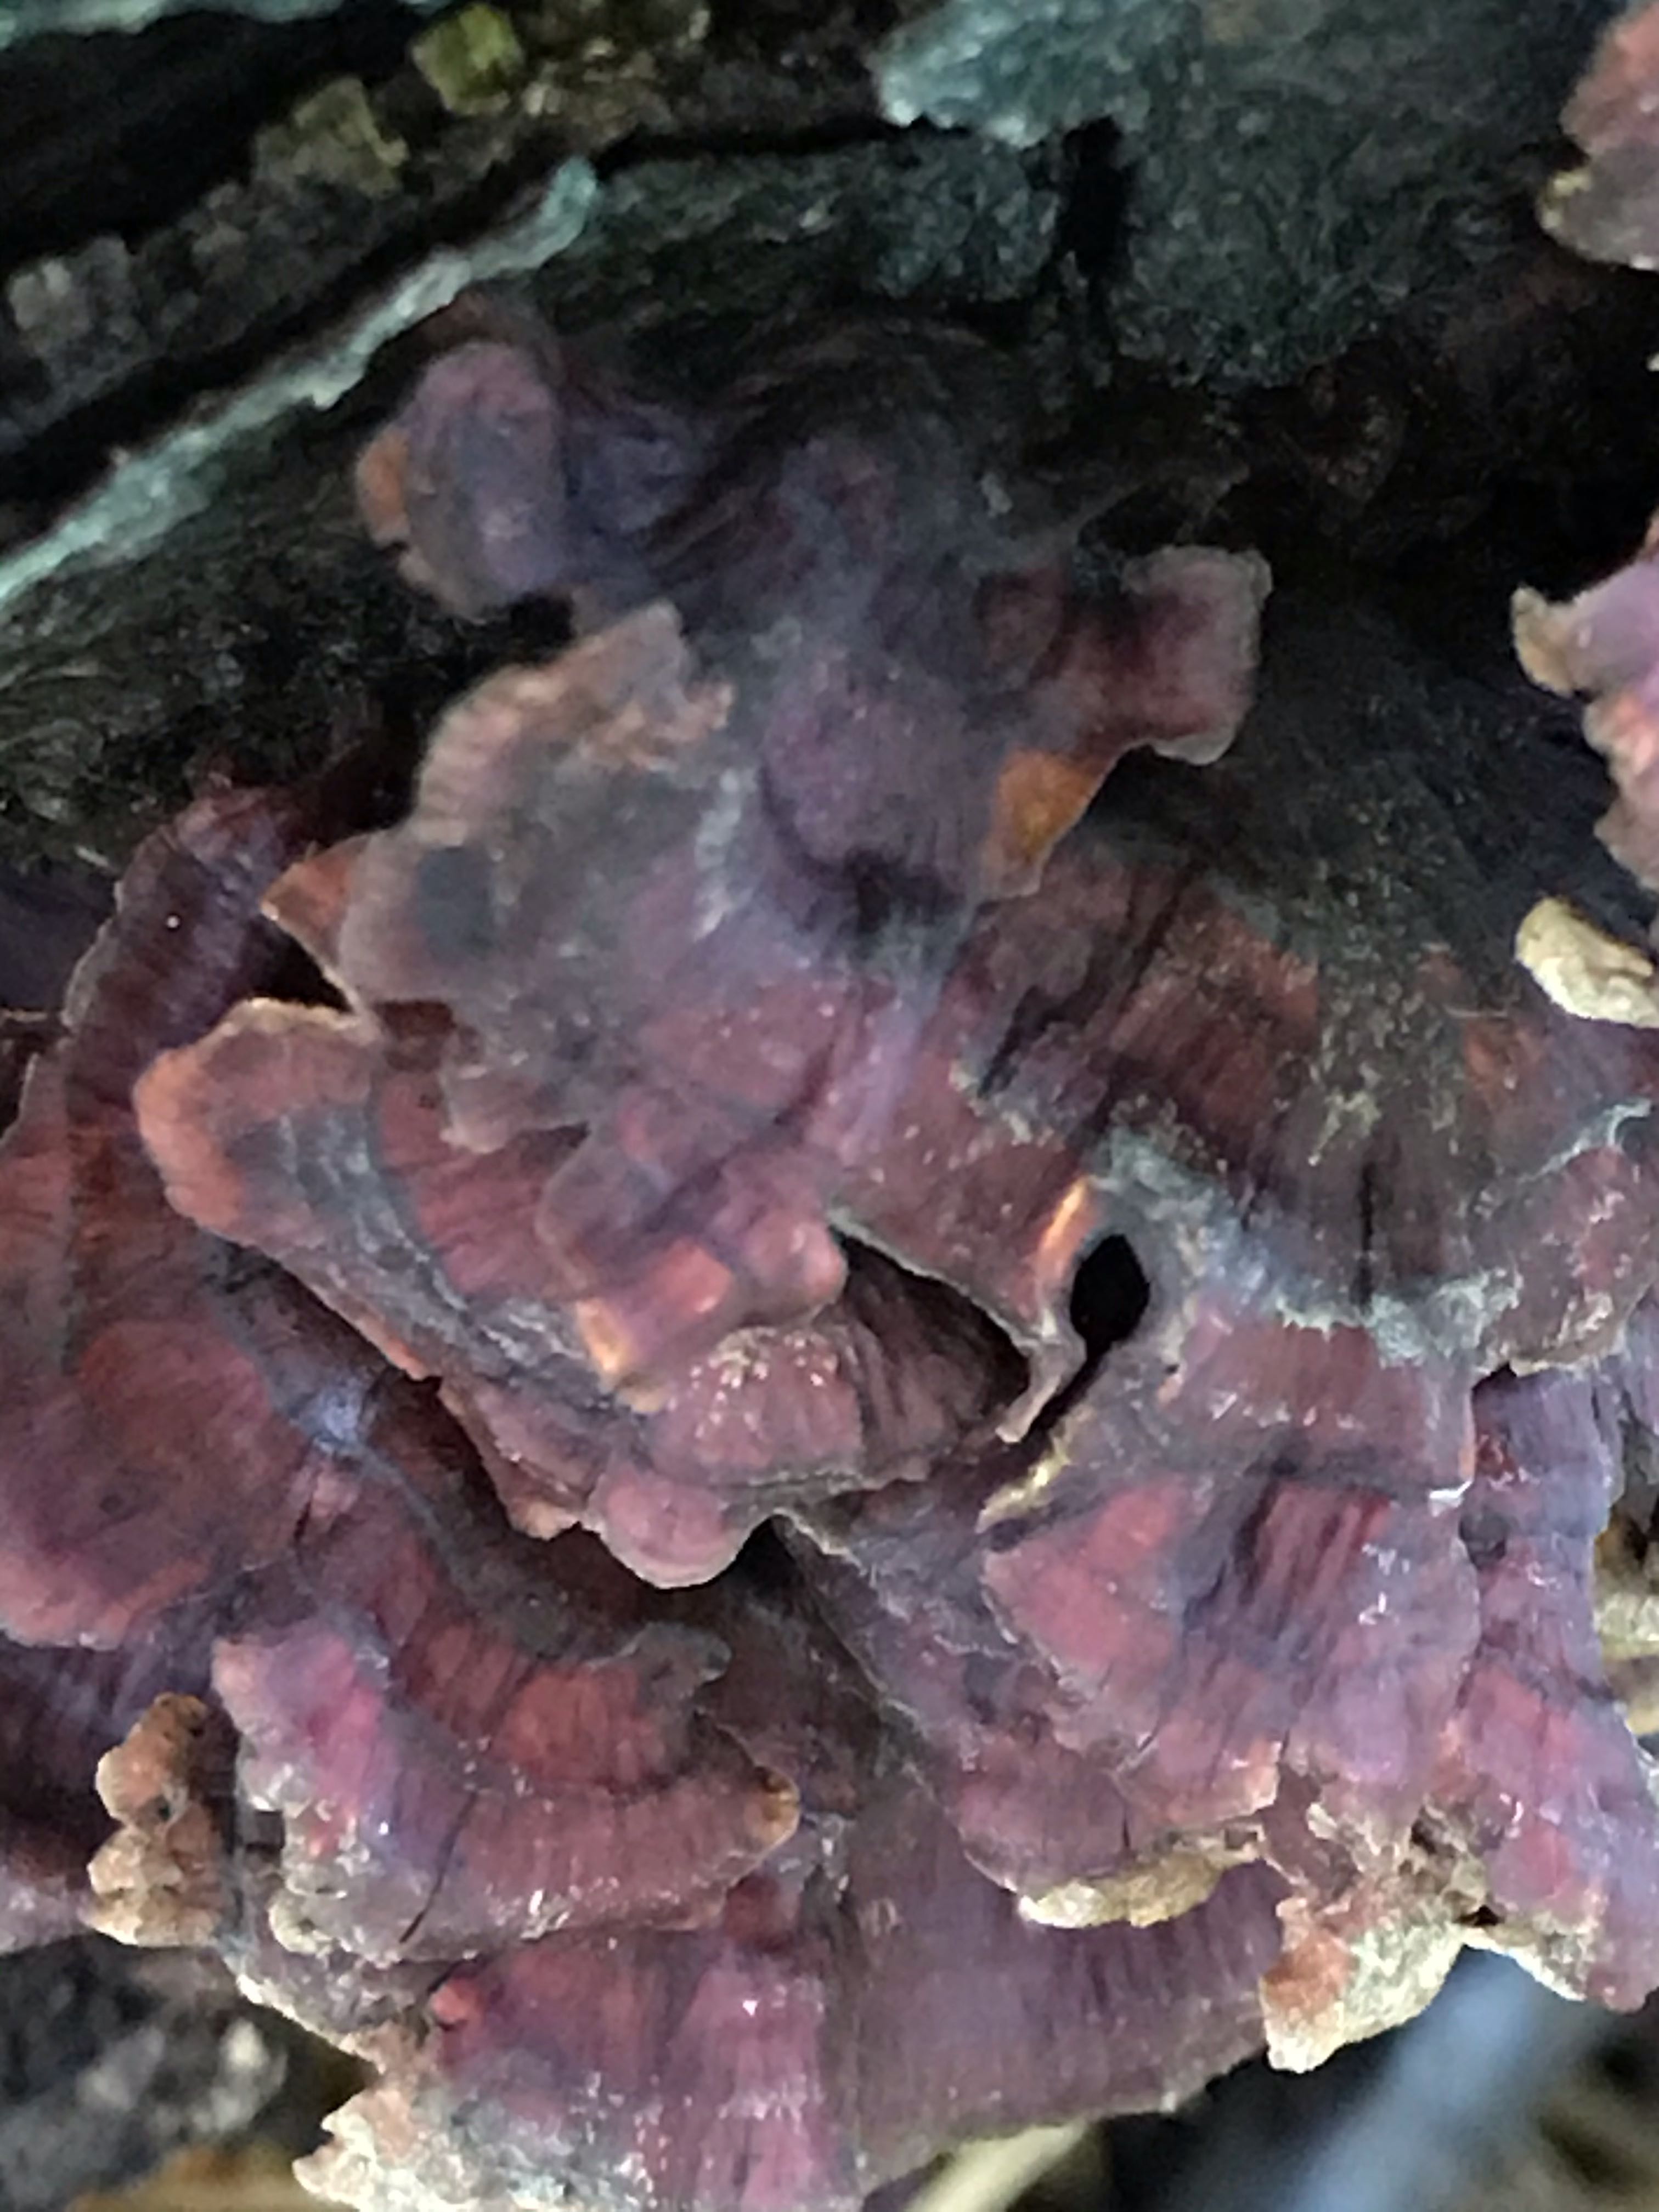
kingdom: Fungi
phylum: Basidiomycota
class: Agaricomycetes
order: Polyporales
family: Polyporaceae
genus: Trametes
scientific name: Trametes versicolor
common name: broget læderporesvamp
